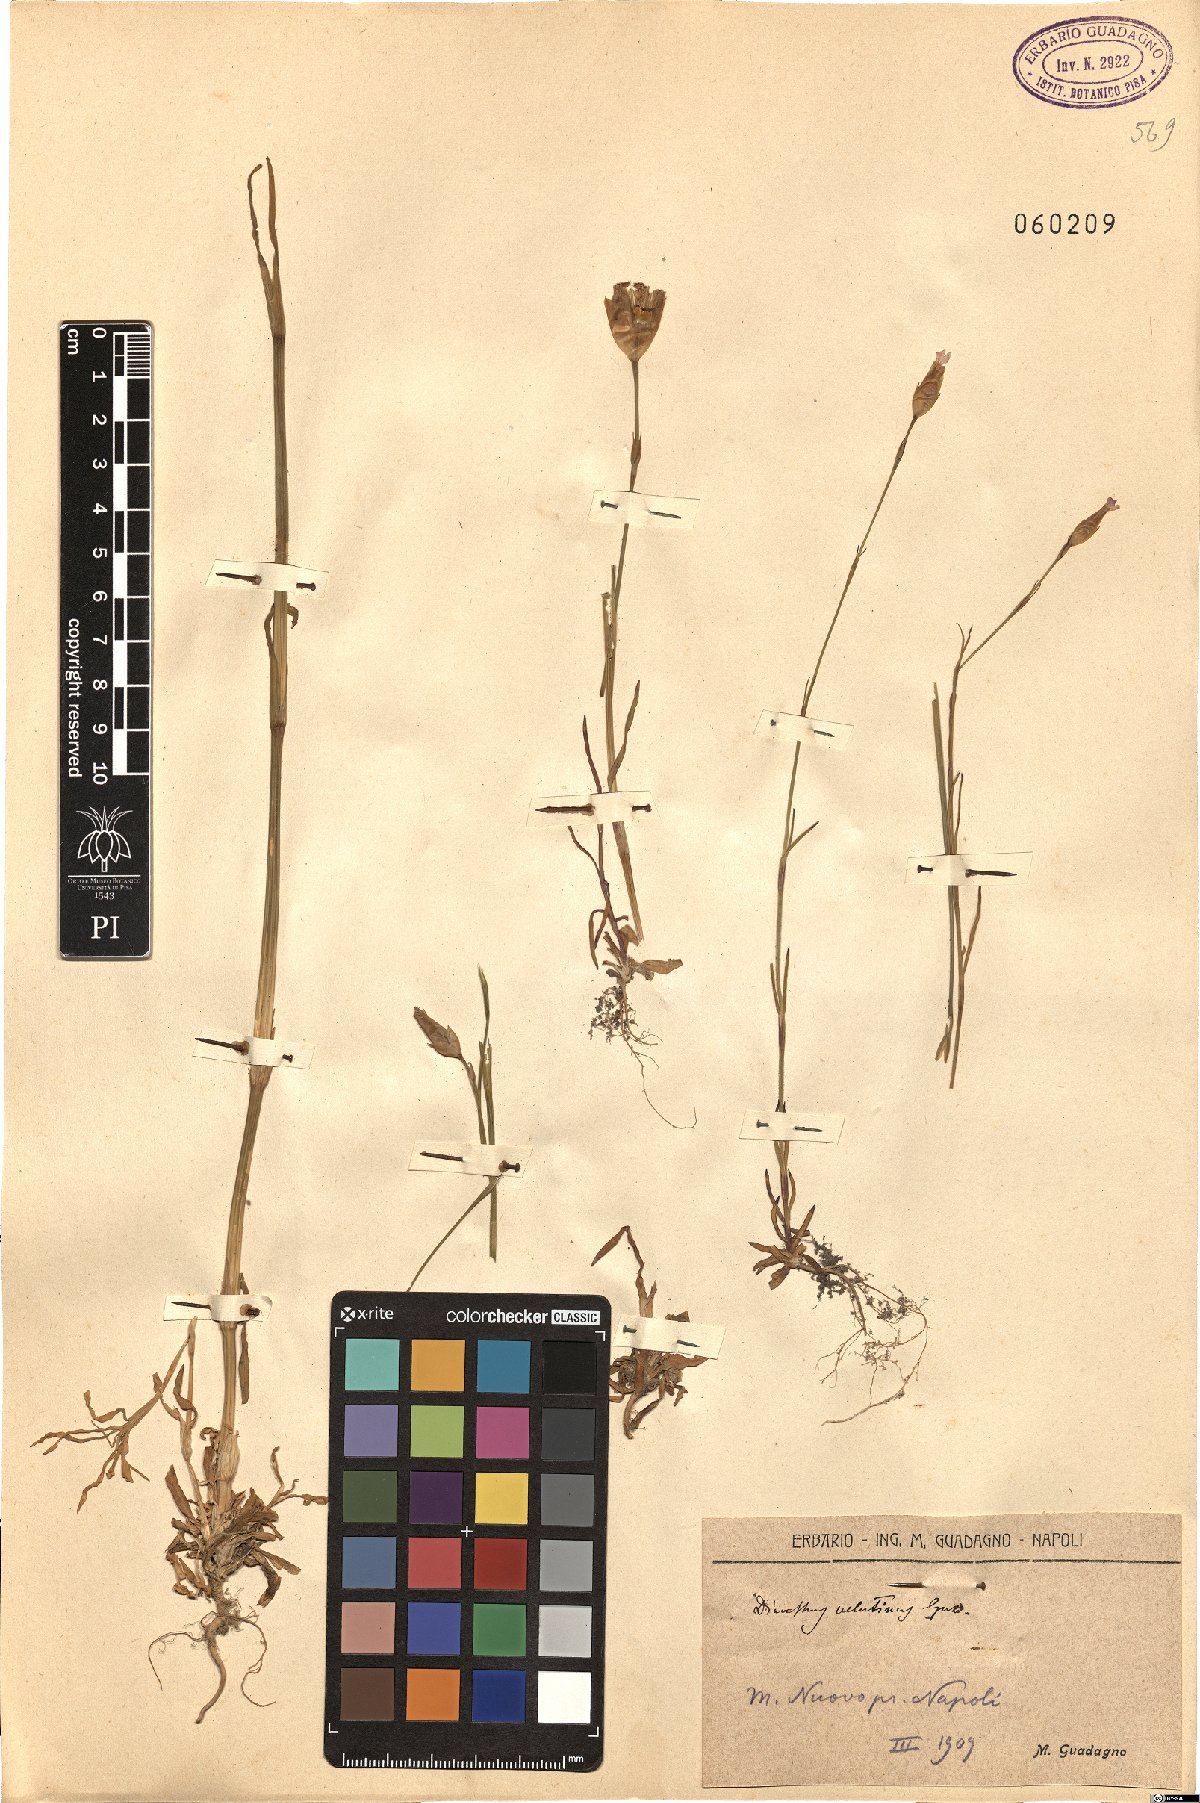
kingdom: Plantae
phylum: Tracheophyta
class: Magnoliopsida
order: Caryophyllales
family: Caryophyllaceae
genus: Petrorhagia
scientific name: Petrorhagia dubia
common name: Hairypink
